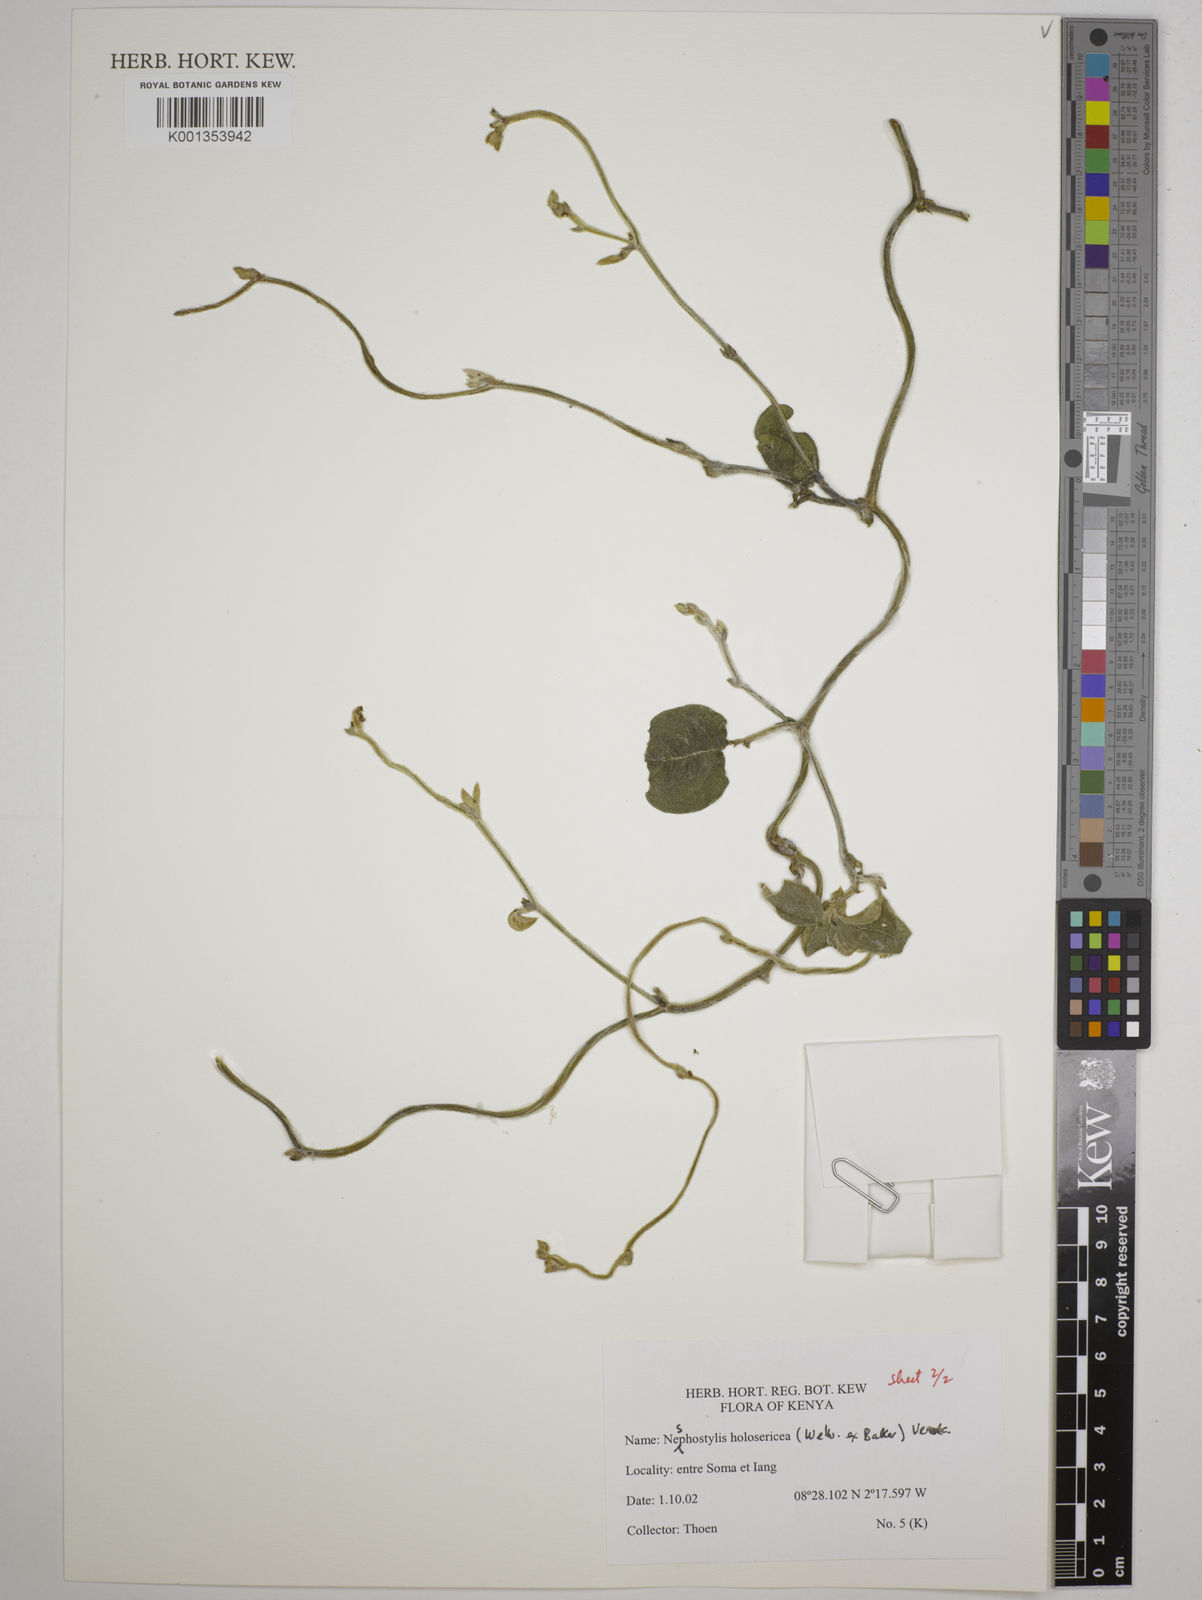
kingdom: Plantae
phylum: Tracheophyta
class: Magnoliopsida
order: Fabales
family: Fabaceae
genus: Nesphostylis
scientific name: Nesphostylis holosericea
